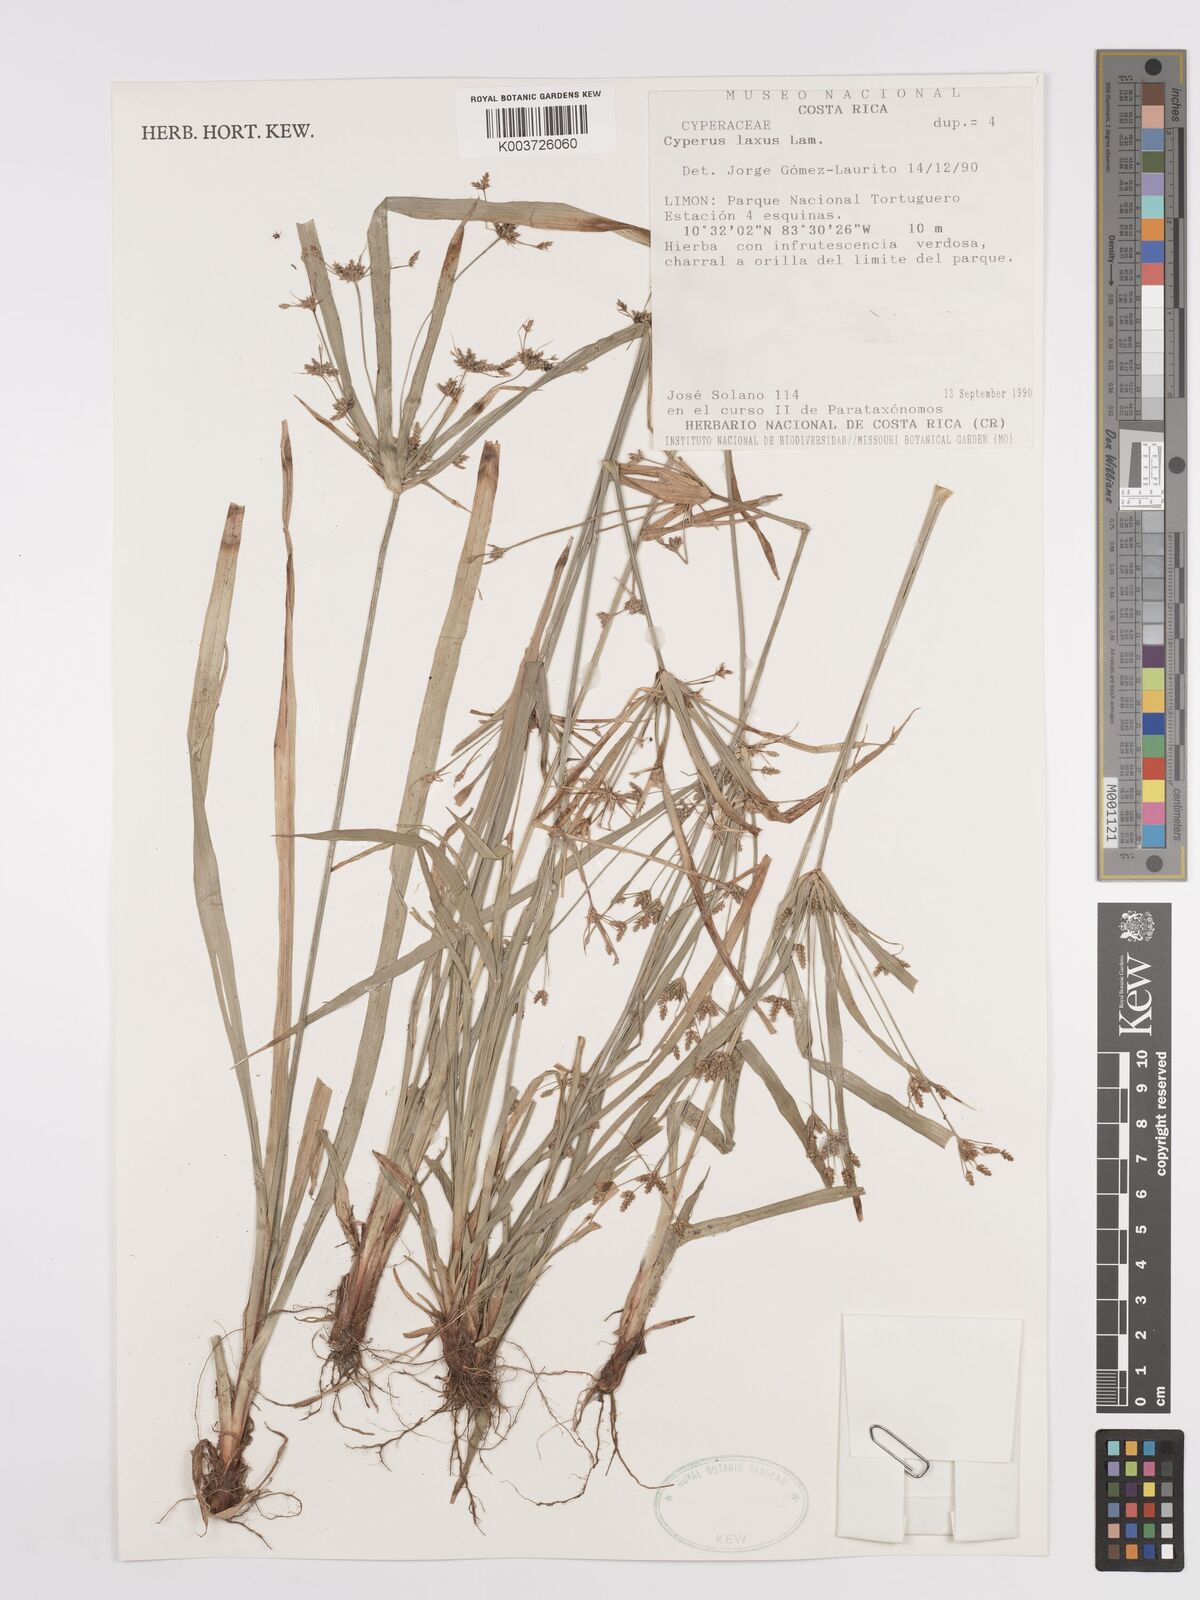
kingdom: Plantae
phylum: Tracheophyta
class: Liliopsida
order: Poales
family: Cyperaceae
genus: Cyperus
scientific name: Cyperus laxus
